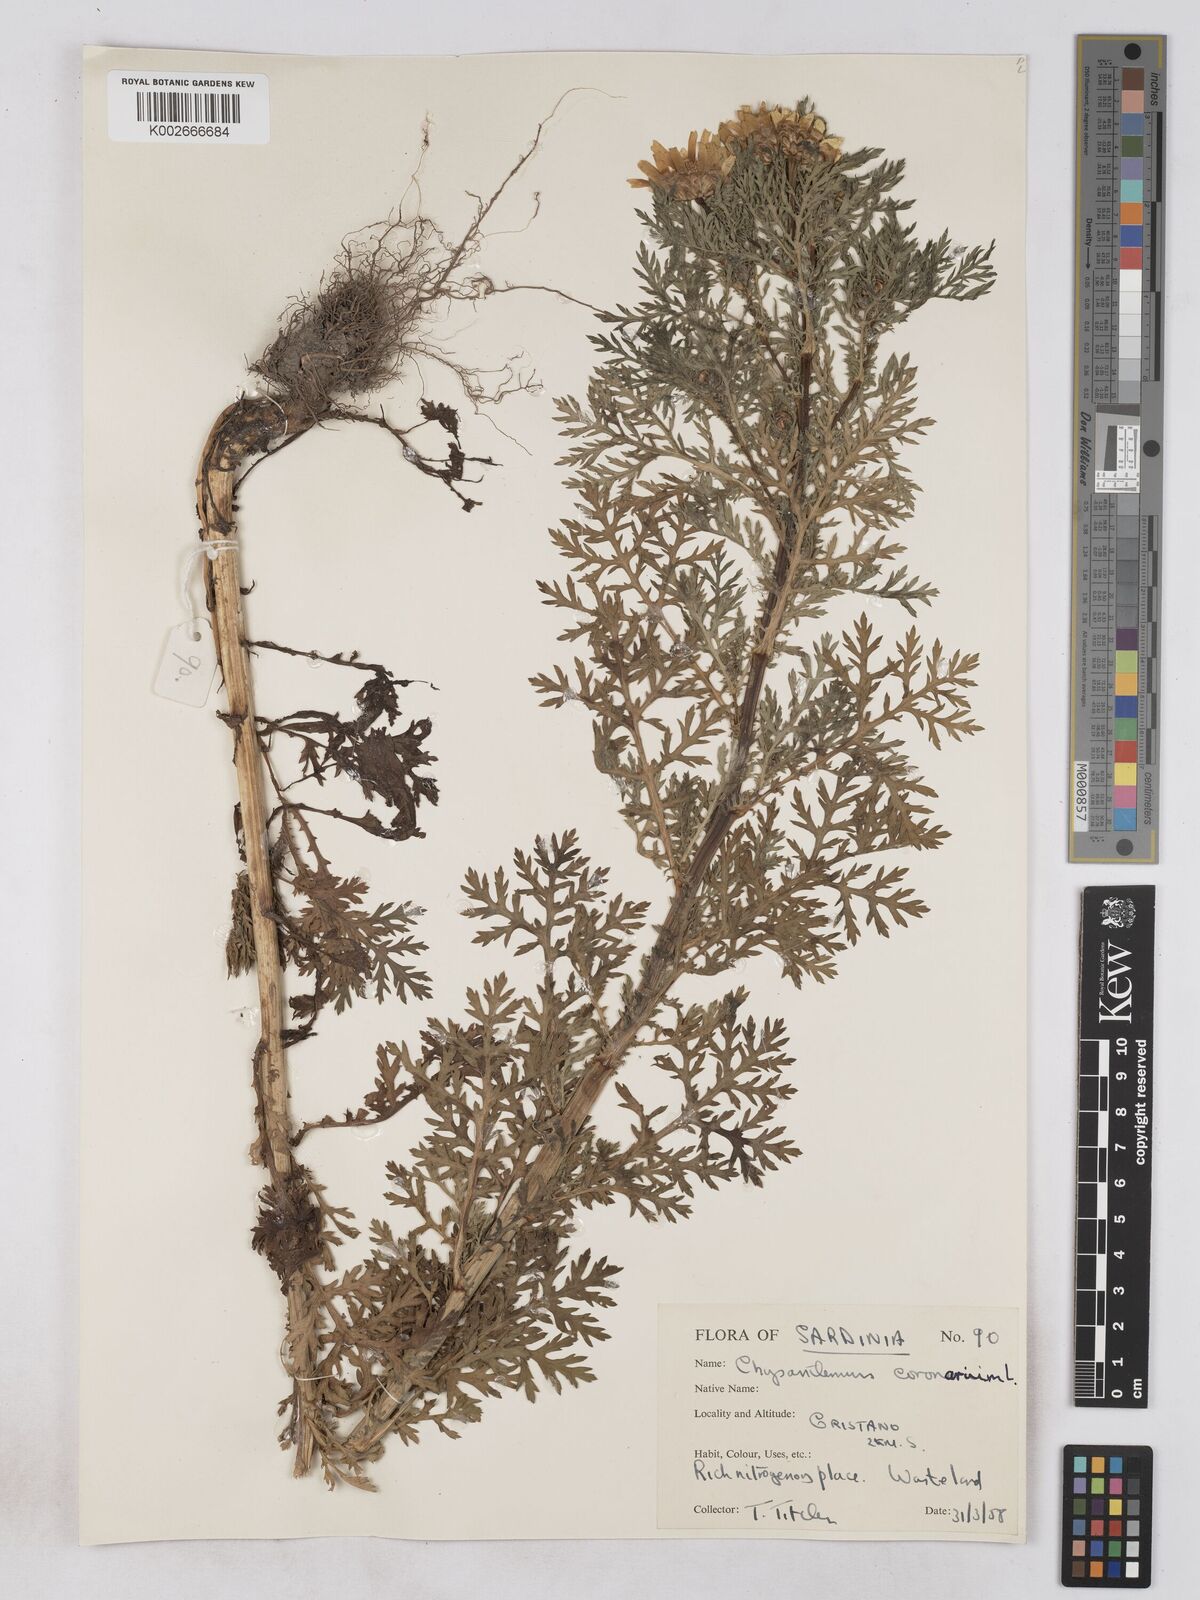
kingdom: Plantae
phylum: Tracheophyta
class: Magnoliopsida
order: Asterales
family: Asteraceae
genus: Glebionis
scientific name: Glebionis coronaria
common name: Crowndaisy
